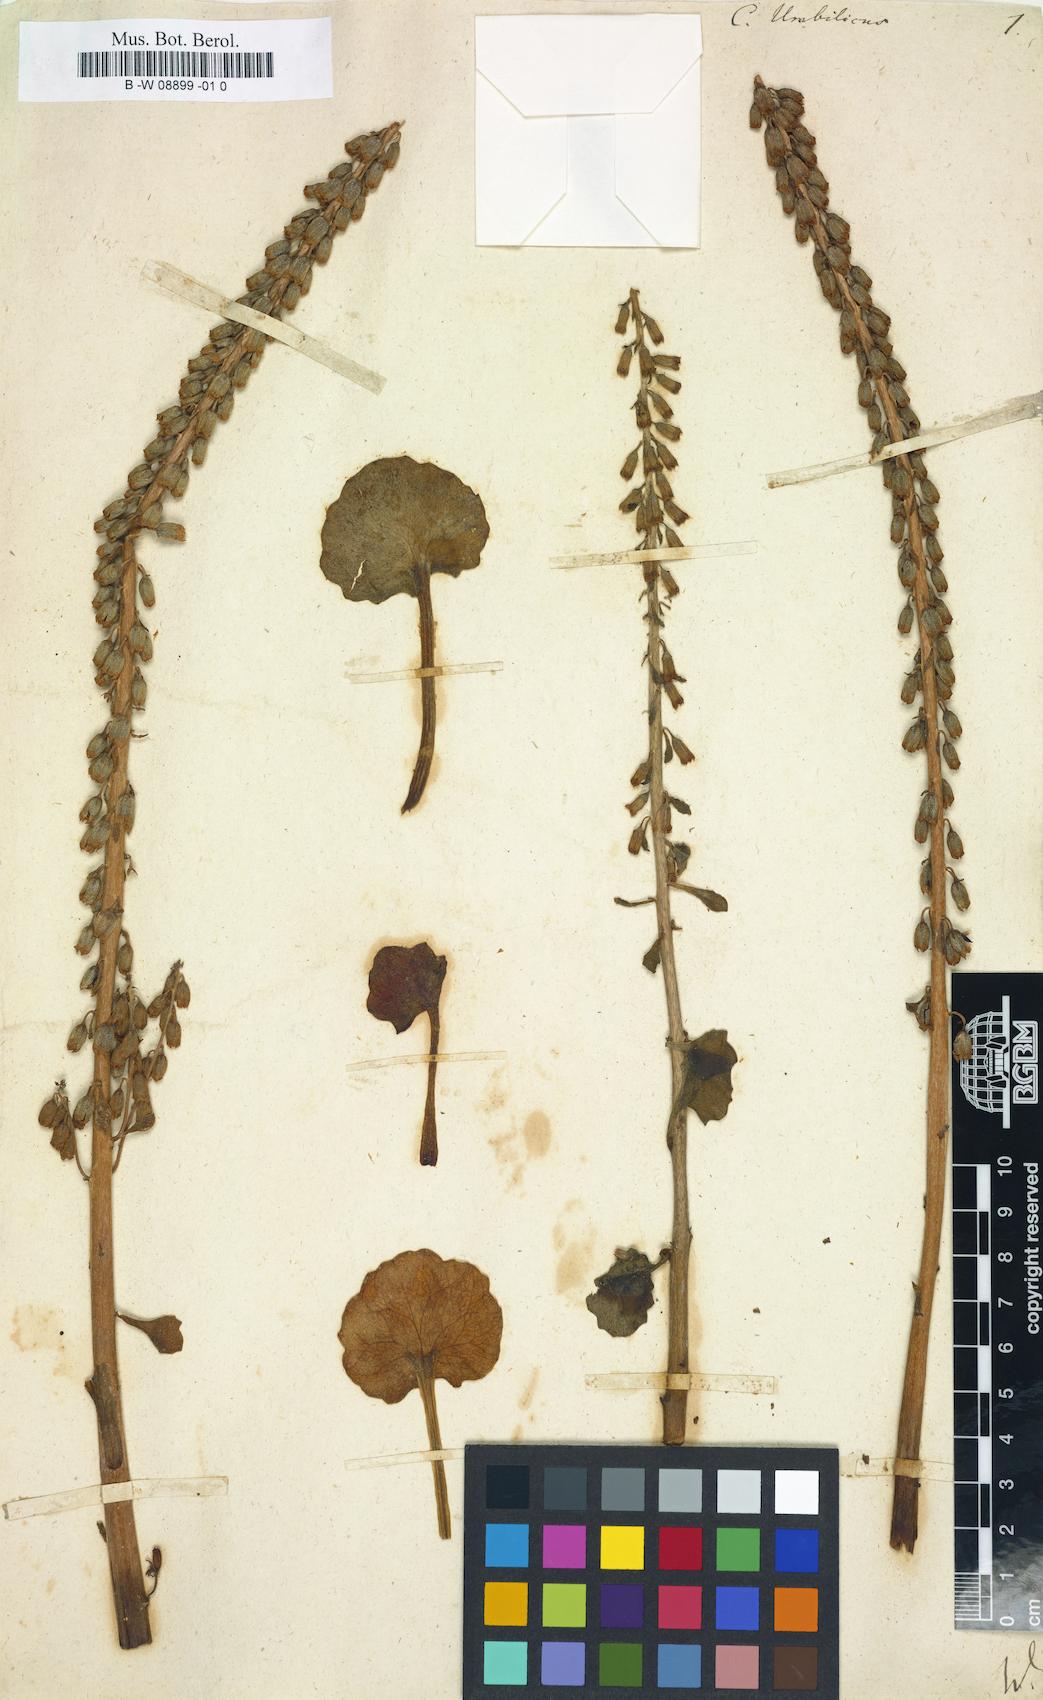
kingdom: Plantae
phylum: Tracheophyta
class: Magnoliopsida
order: Saxifragales
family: Crassulaceae
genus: Umbilicus
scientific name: Umbilicus rupestris
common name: Navelwort
